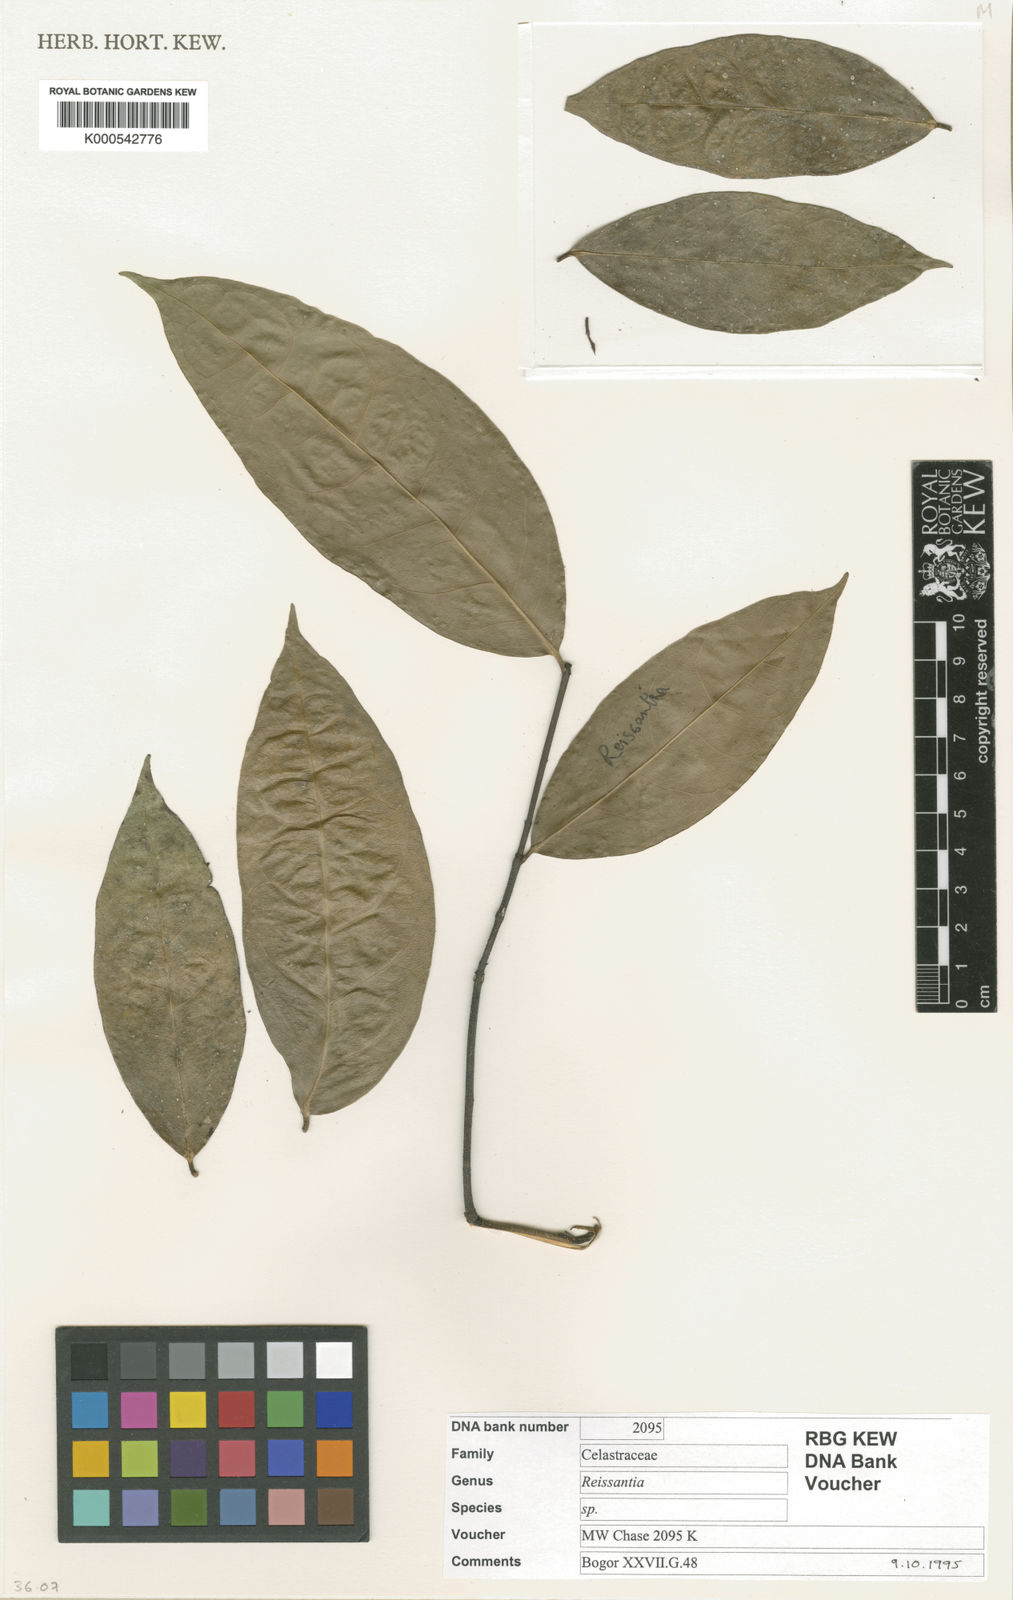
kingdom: Plantae
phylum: Tracheophyta
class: Magnoliopsida
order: Celastrales
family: Celastraceae
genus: Reissantia
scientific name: Reissantia
